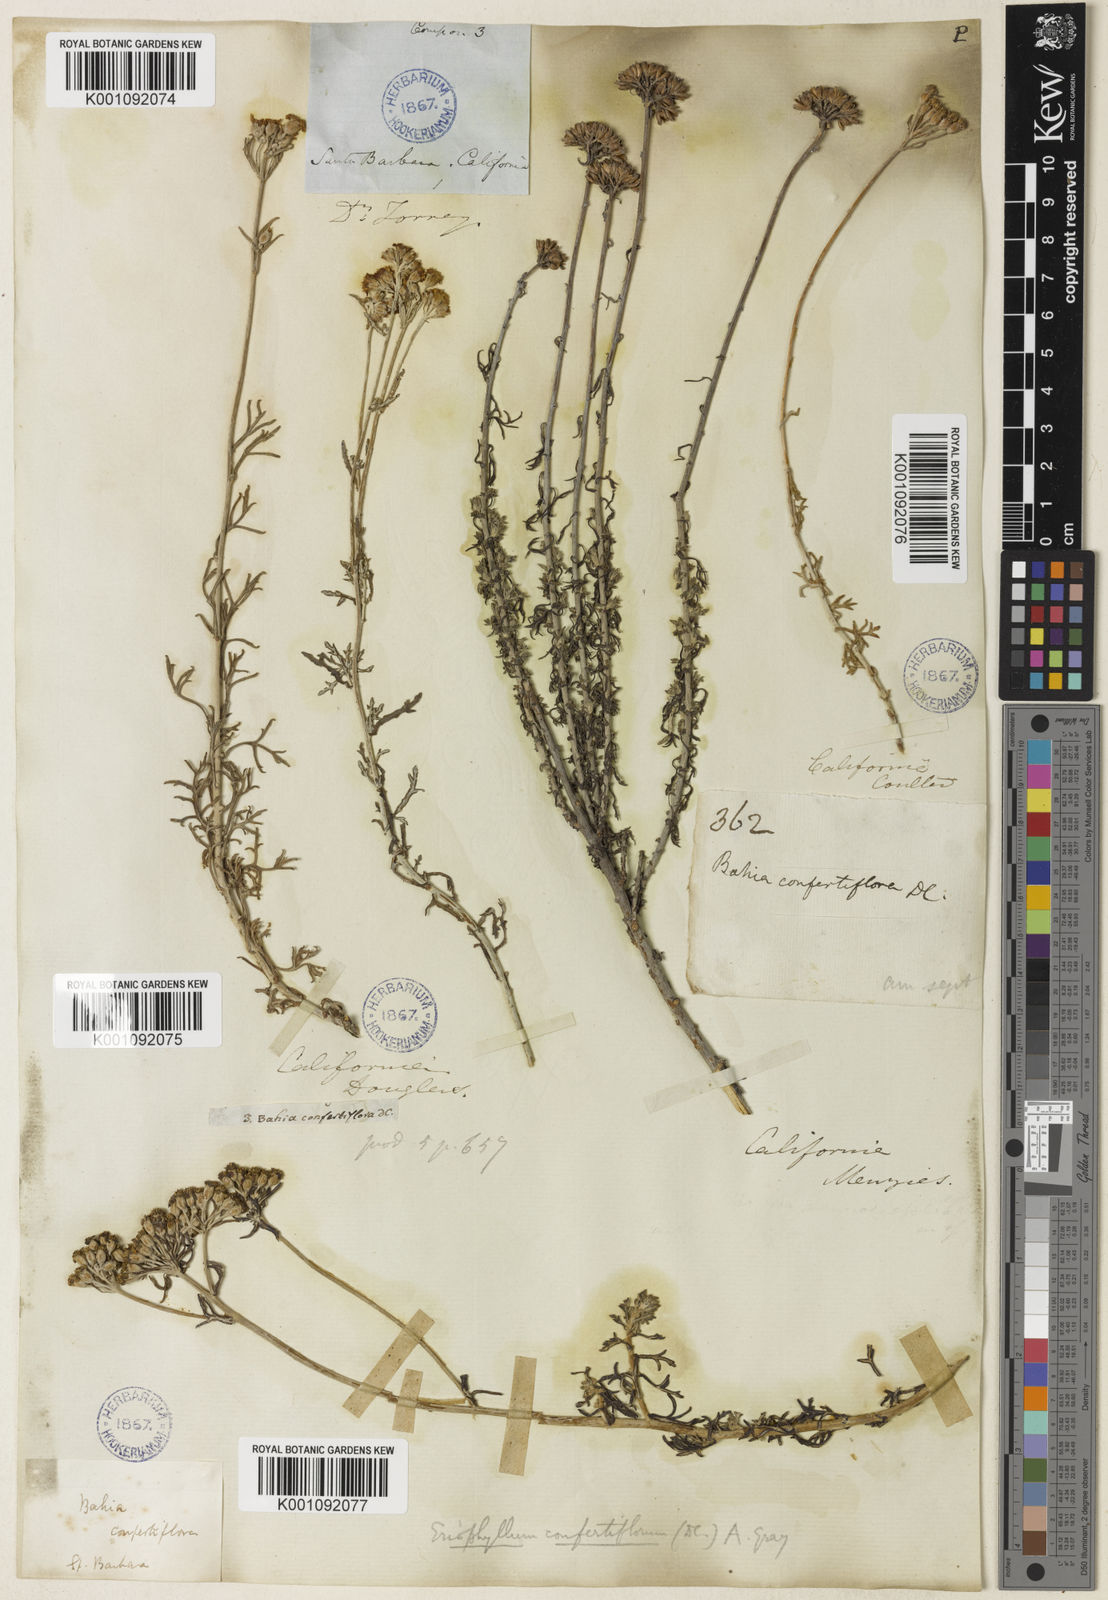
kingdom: Plantae
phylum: Tracheophyta
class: Magnoliopsida
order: Asterales
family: Asteraceae
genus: Eriophyllum
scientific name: Eriophyllum confertiflorum
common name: Golden-yarrow
